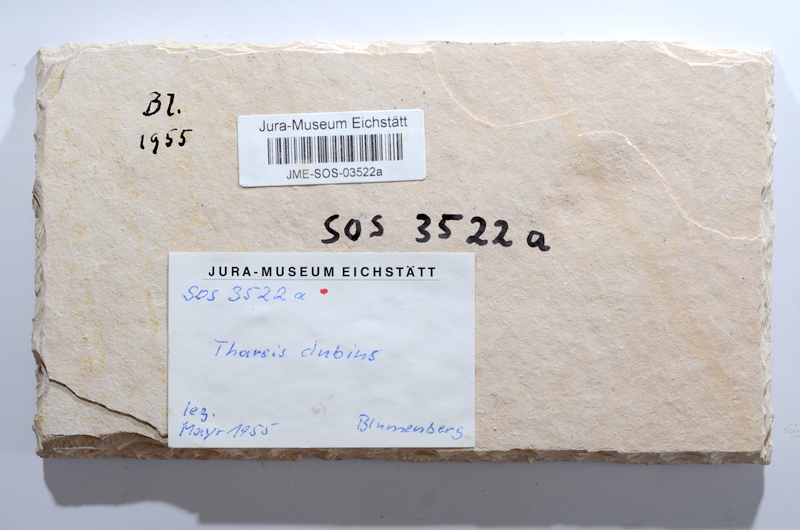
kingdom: Animalia
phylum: Chordata
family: Ascalaboidae
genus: Tharsis
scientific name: Tharsis dubius
